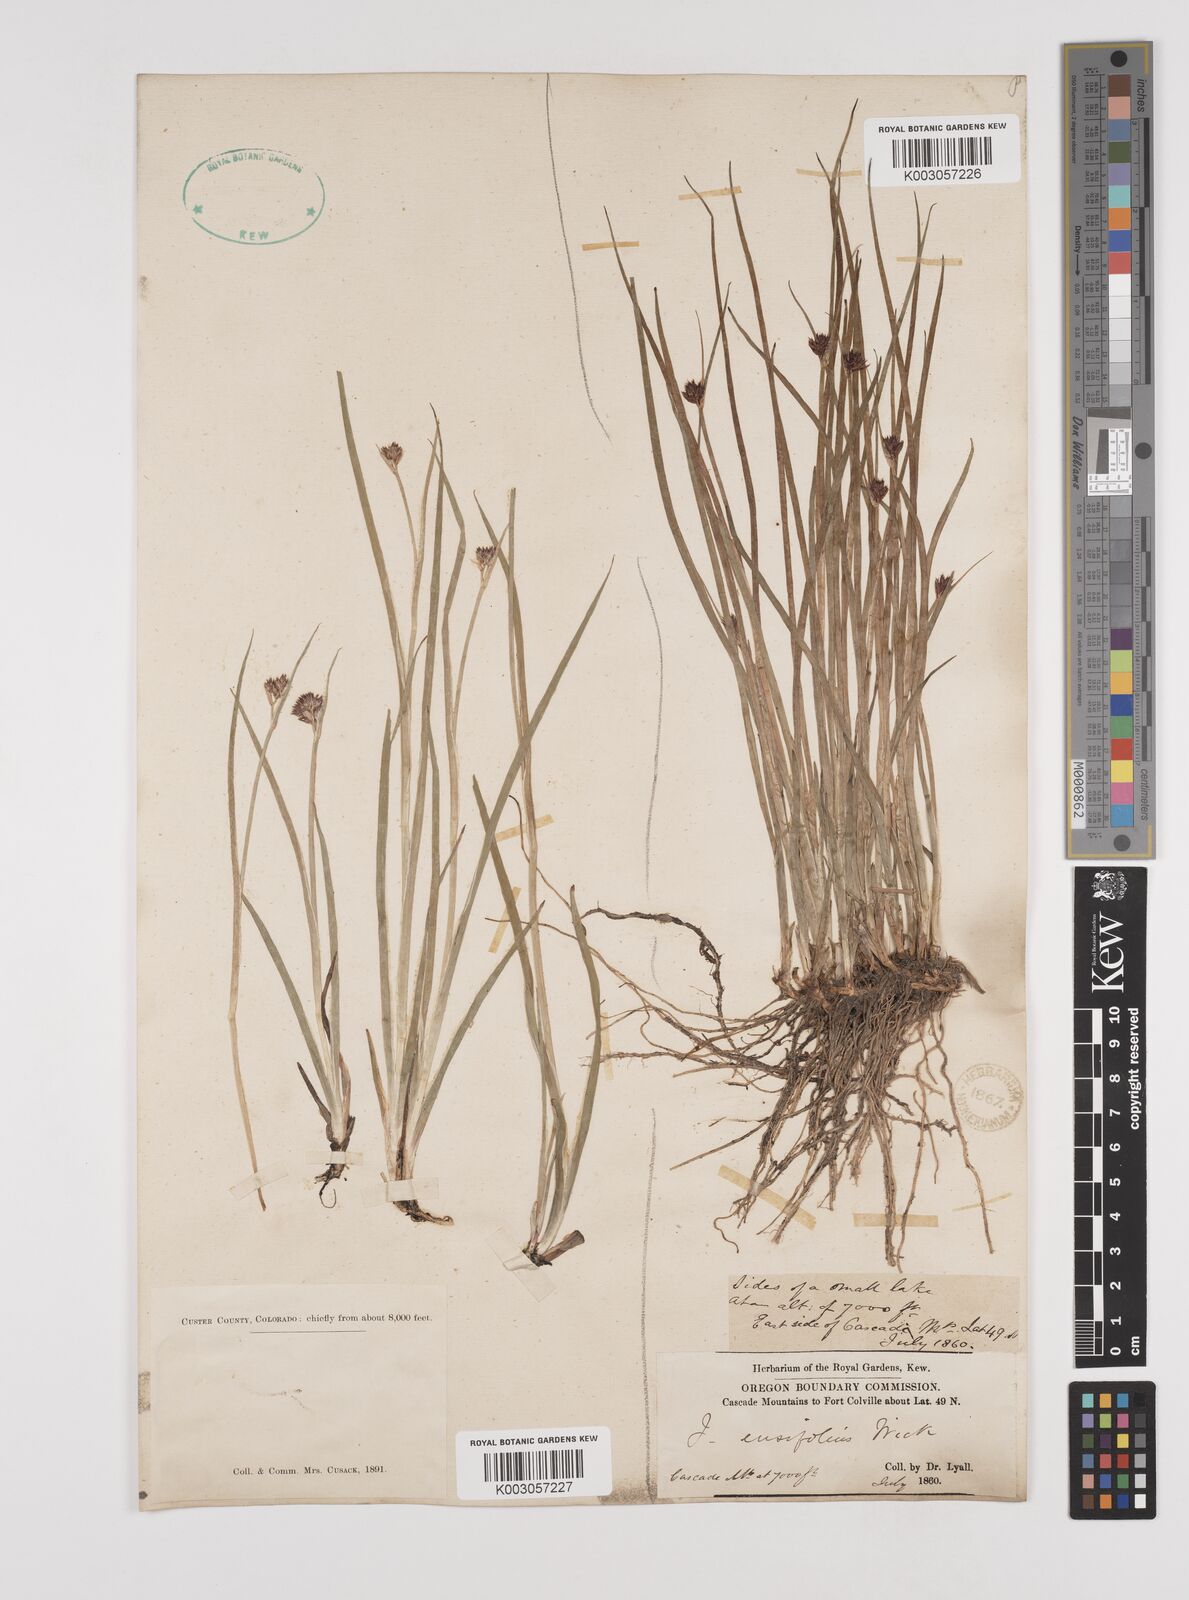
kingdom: Plantae
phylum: Tracheophyta
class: Liliopsida
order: Poales
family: Juncaceae
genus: Juncus
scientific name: Juncus ensifolius
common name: Sword-leaved rush
